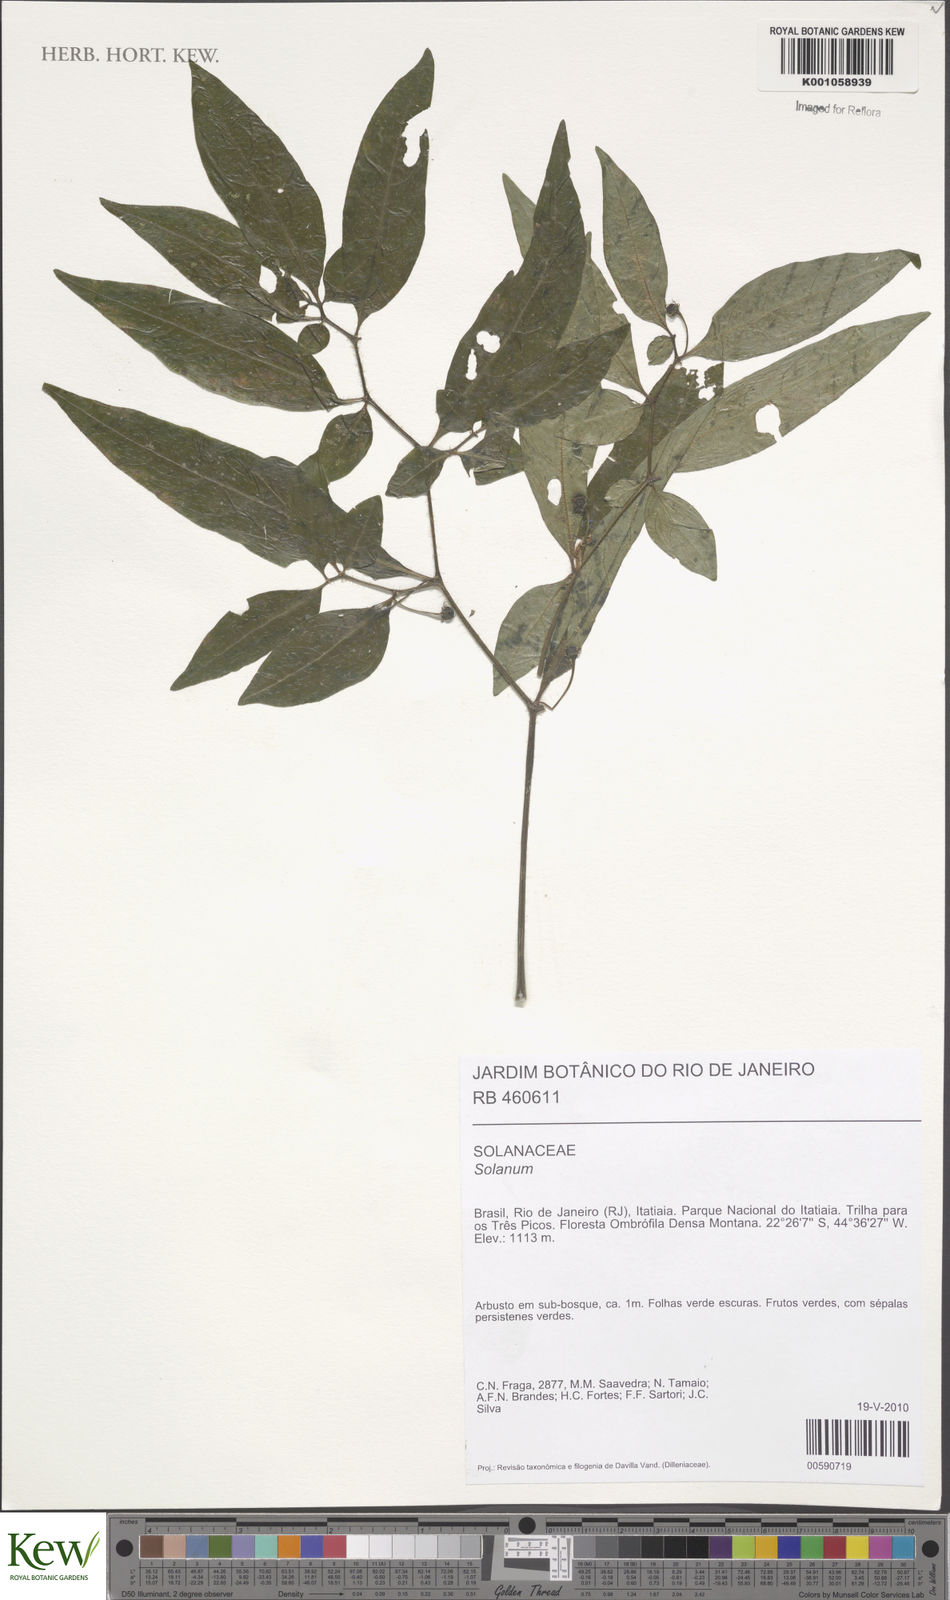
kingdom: Plantae
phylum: Tracheophyta
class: Magnoliopsida
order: Solanales
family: Solanaceae
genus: Solanum
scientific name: Solanum jussiaei
